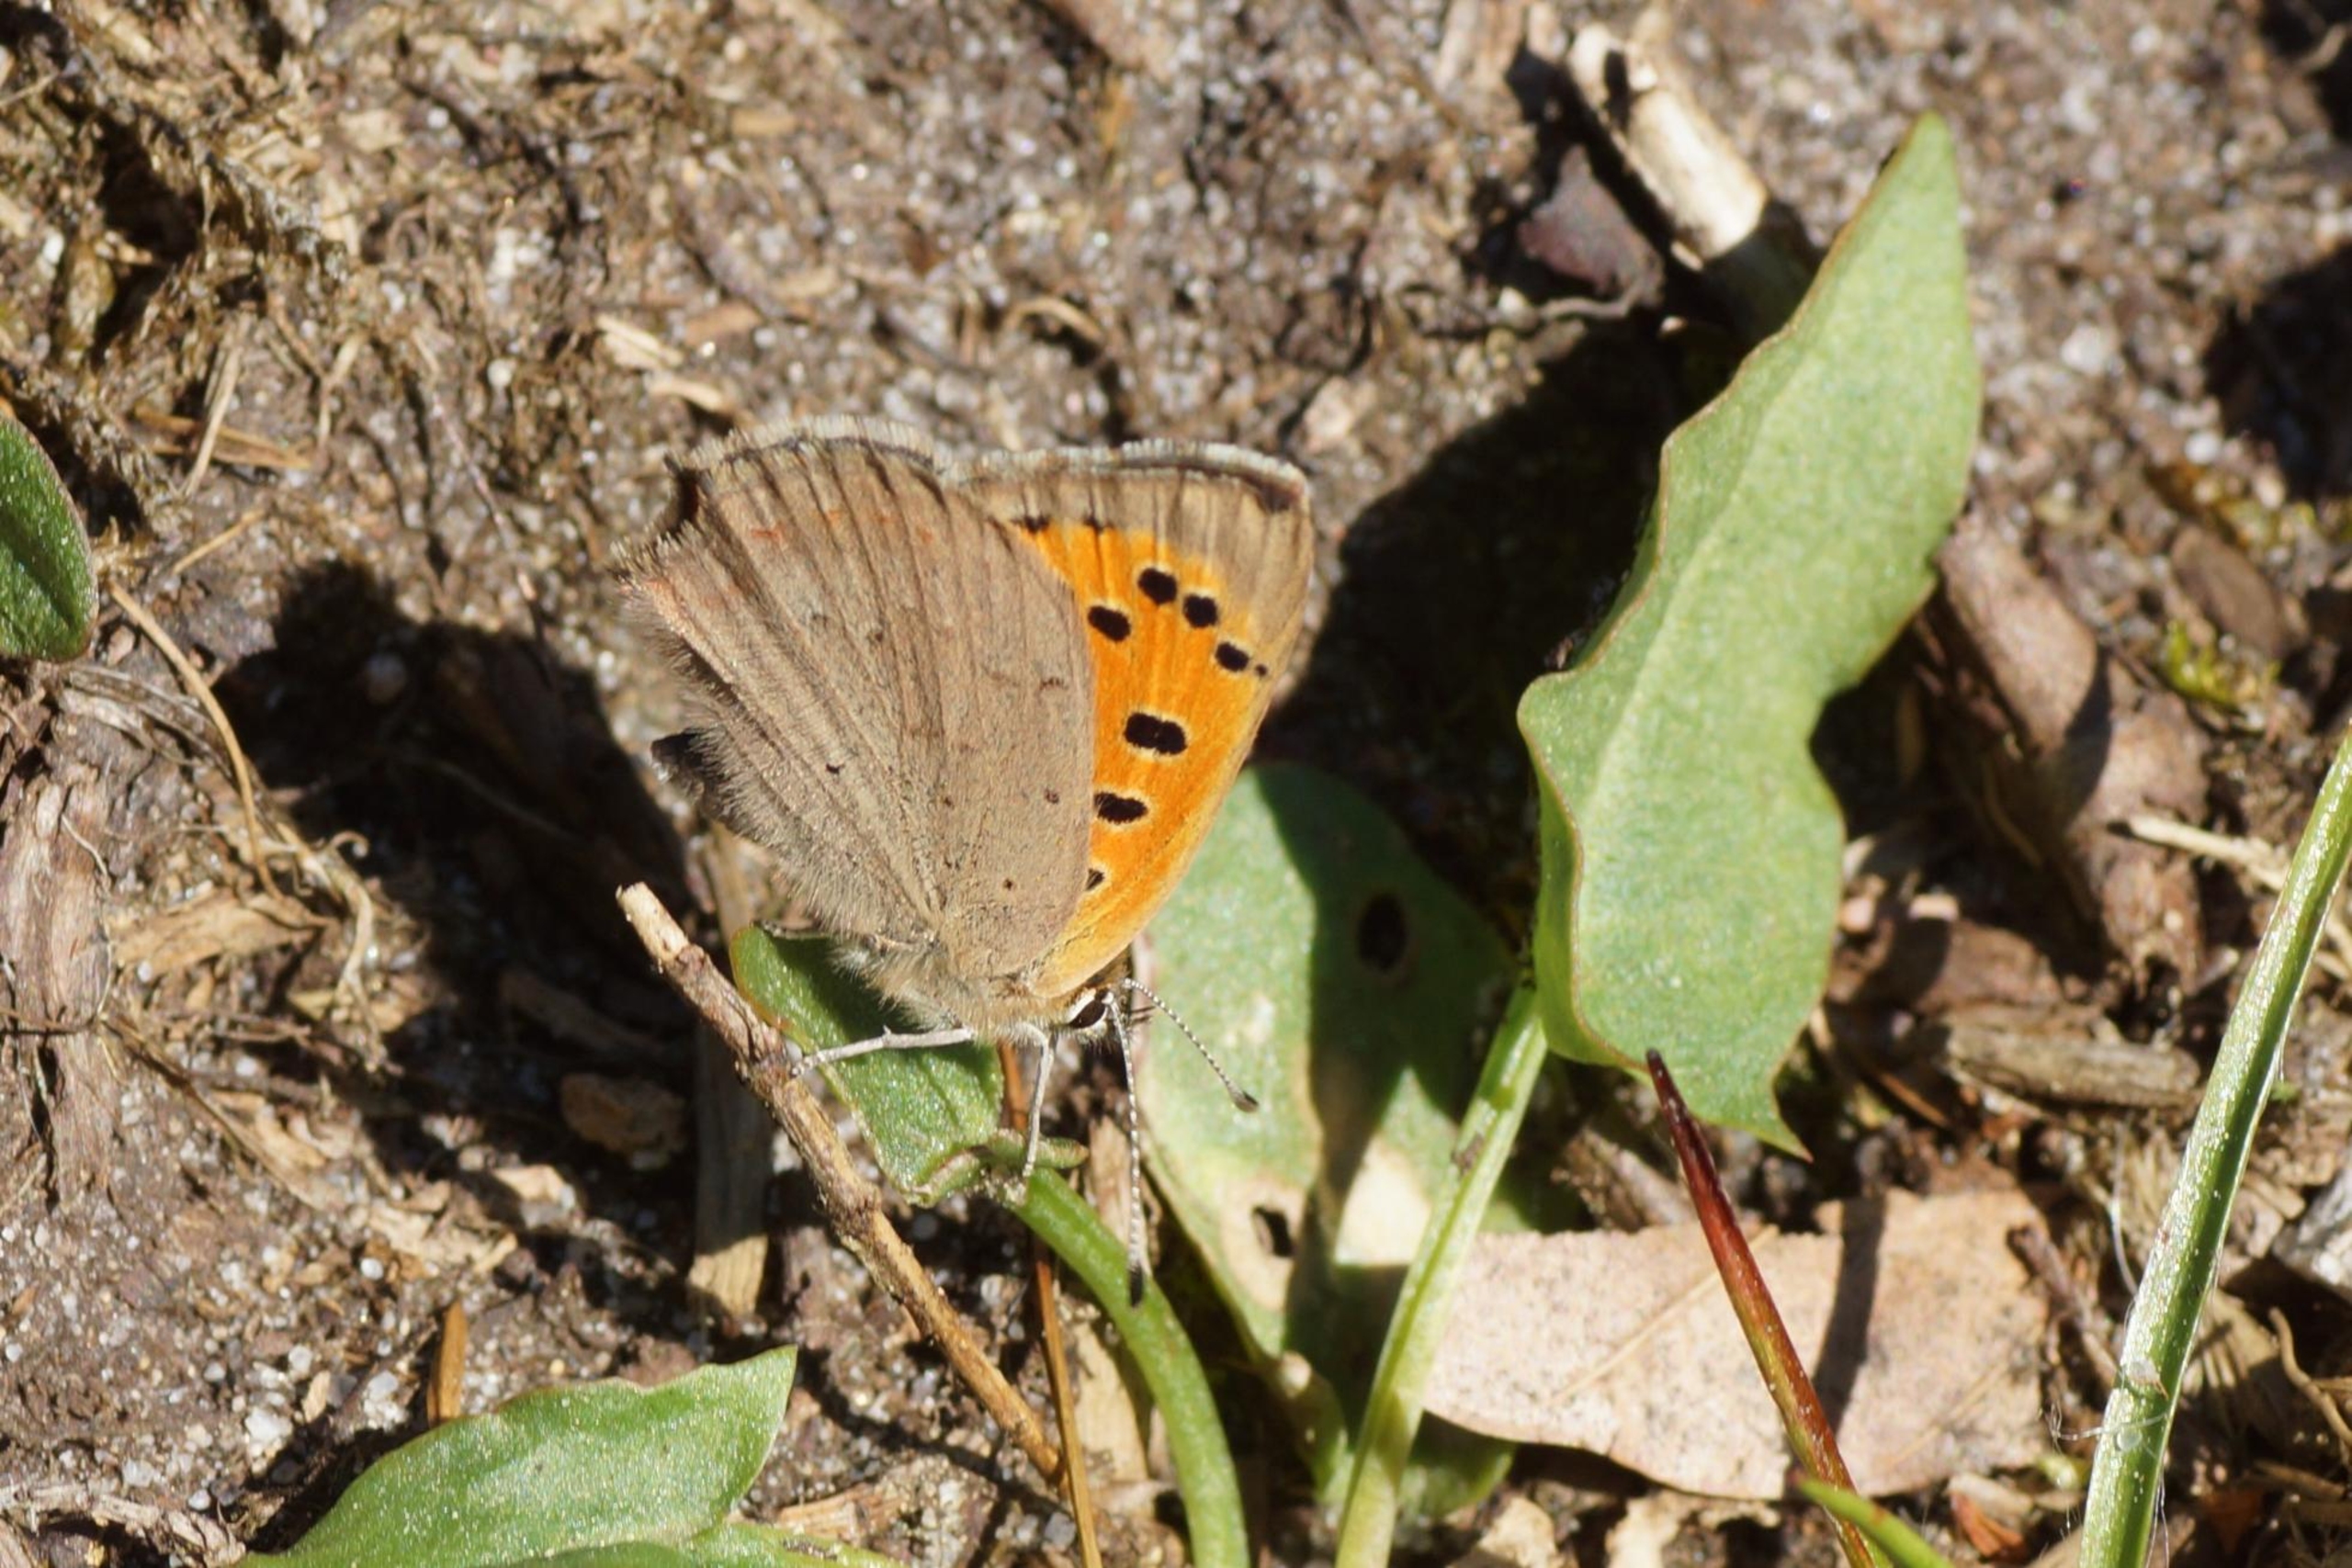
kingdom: Animalia
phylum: Arthropoda
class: Insecta
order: Lepidoptera
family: Lycaenidae
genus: Lycaena
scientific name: Lycaena phlaeas
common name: Lille ildfugl
